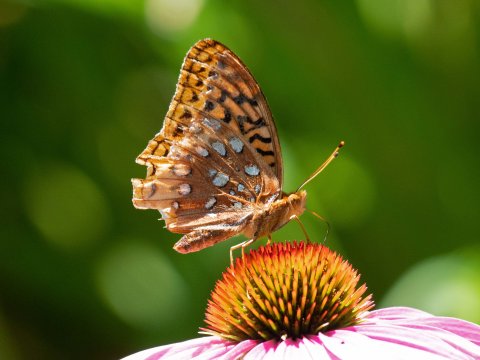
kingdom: Animalia
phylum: Arthropoda
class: Insecta
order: Lepidoptera
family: Nymphalidae
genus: Speyeria
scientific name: Speyeria cybele
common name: Great Spangled Fritillary
